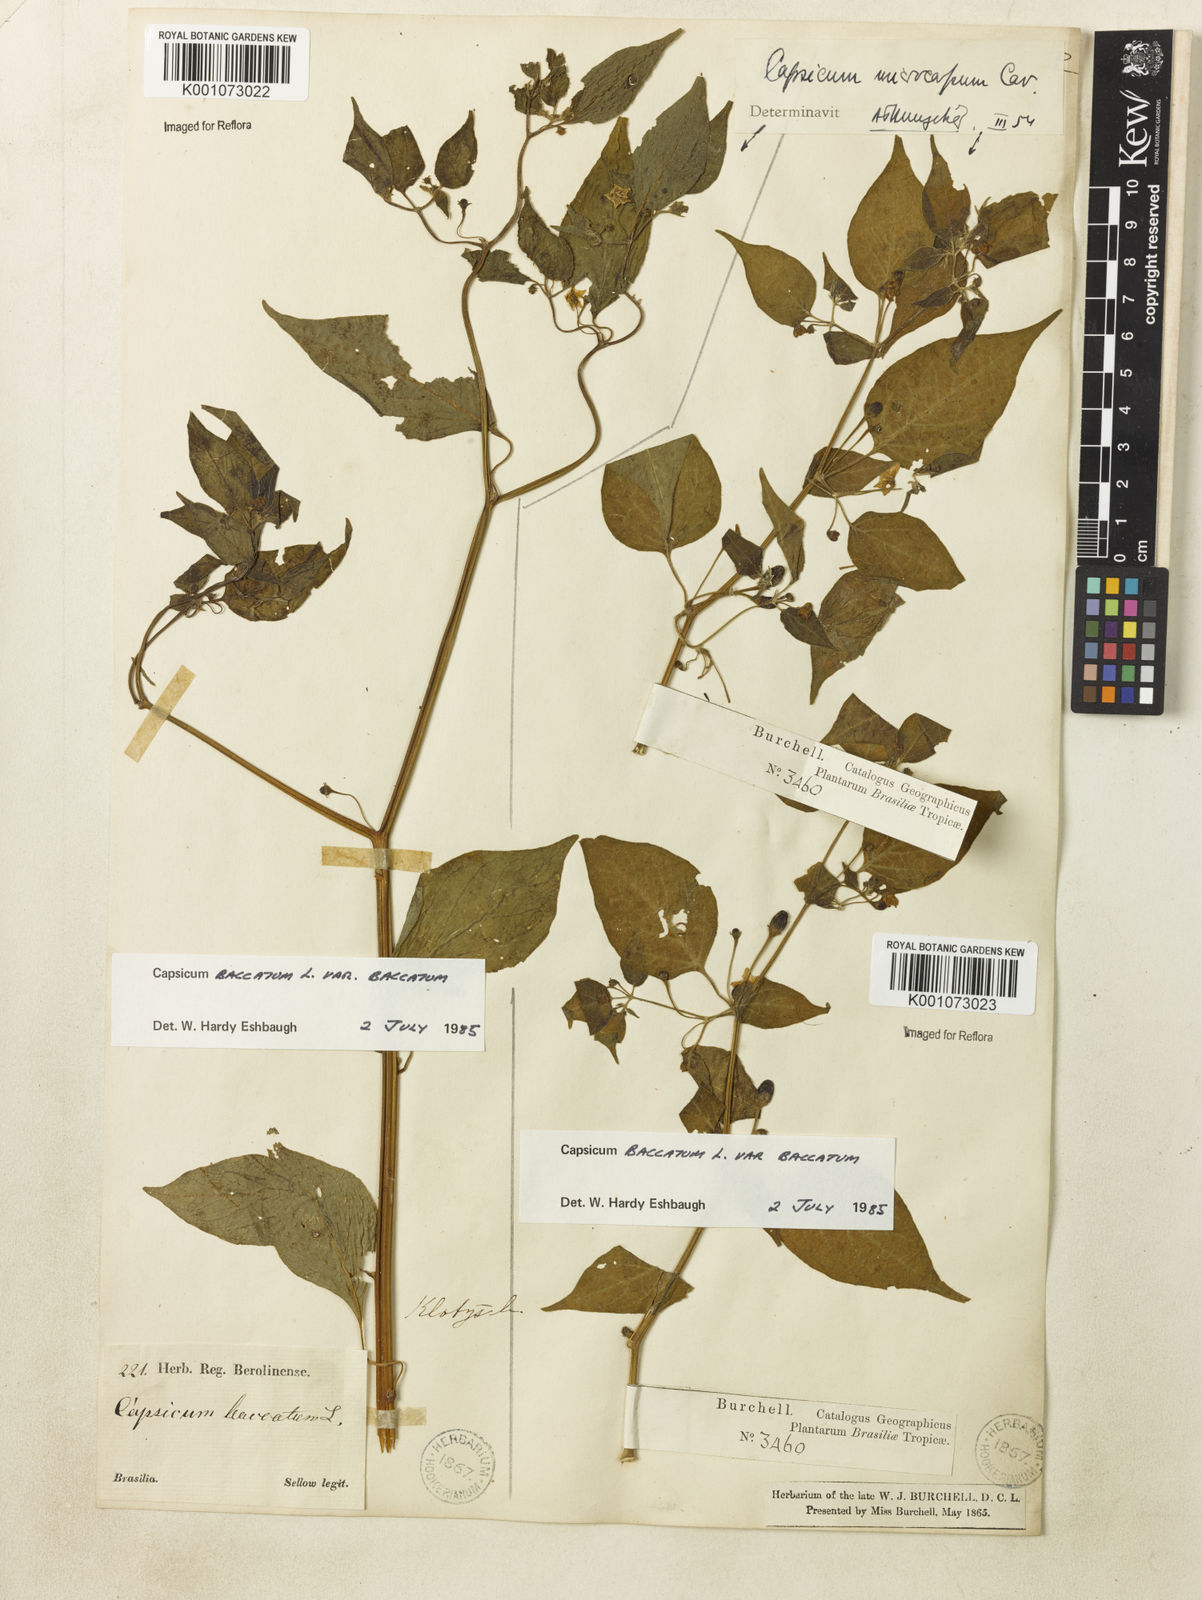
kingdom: Plantae
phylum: Tracheophyta
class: Magnoliopsida
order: Solanales
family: Solanaceae
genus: Capsicum
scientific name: Capsicum baccatum
